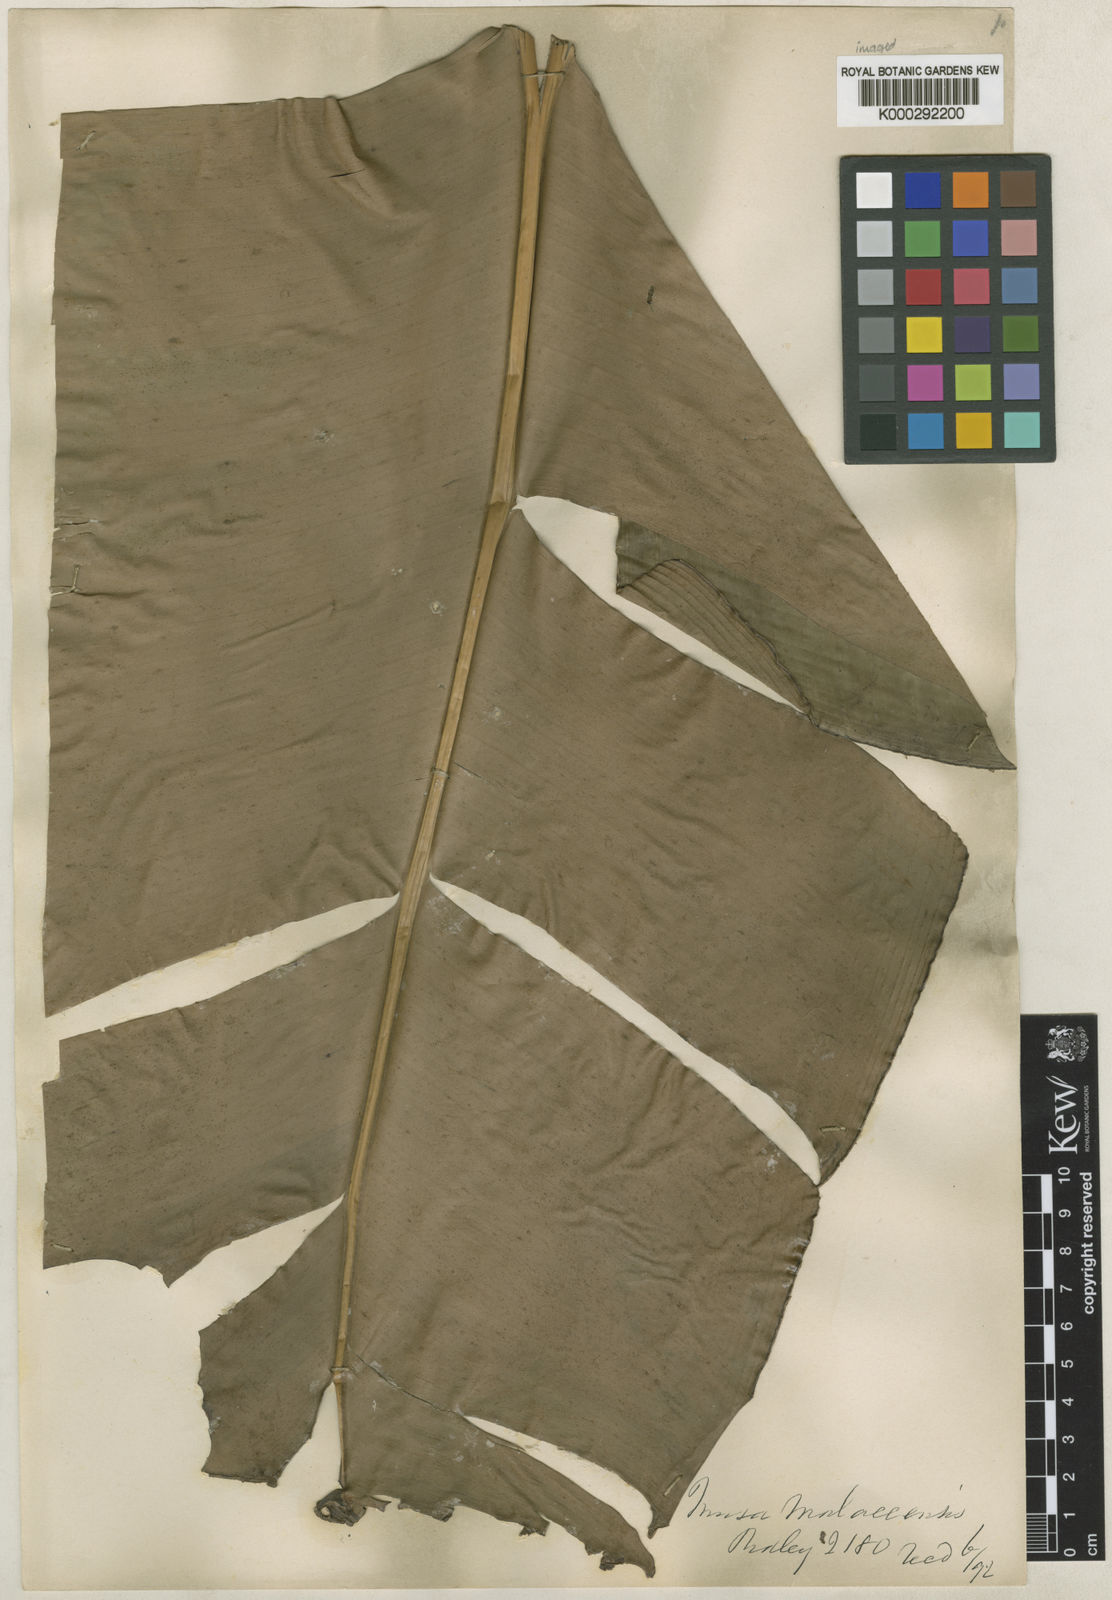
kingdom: Plantae
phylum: Tracheophyta
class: Liliopsida
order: Zingiberales
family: Musaceae
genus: Musa
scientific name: Musa acuminata
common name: Edible banana
